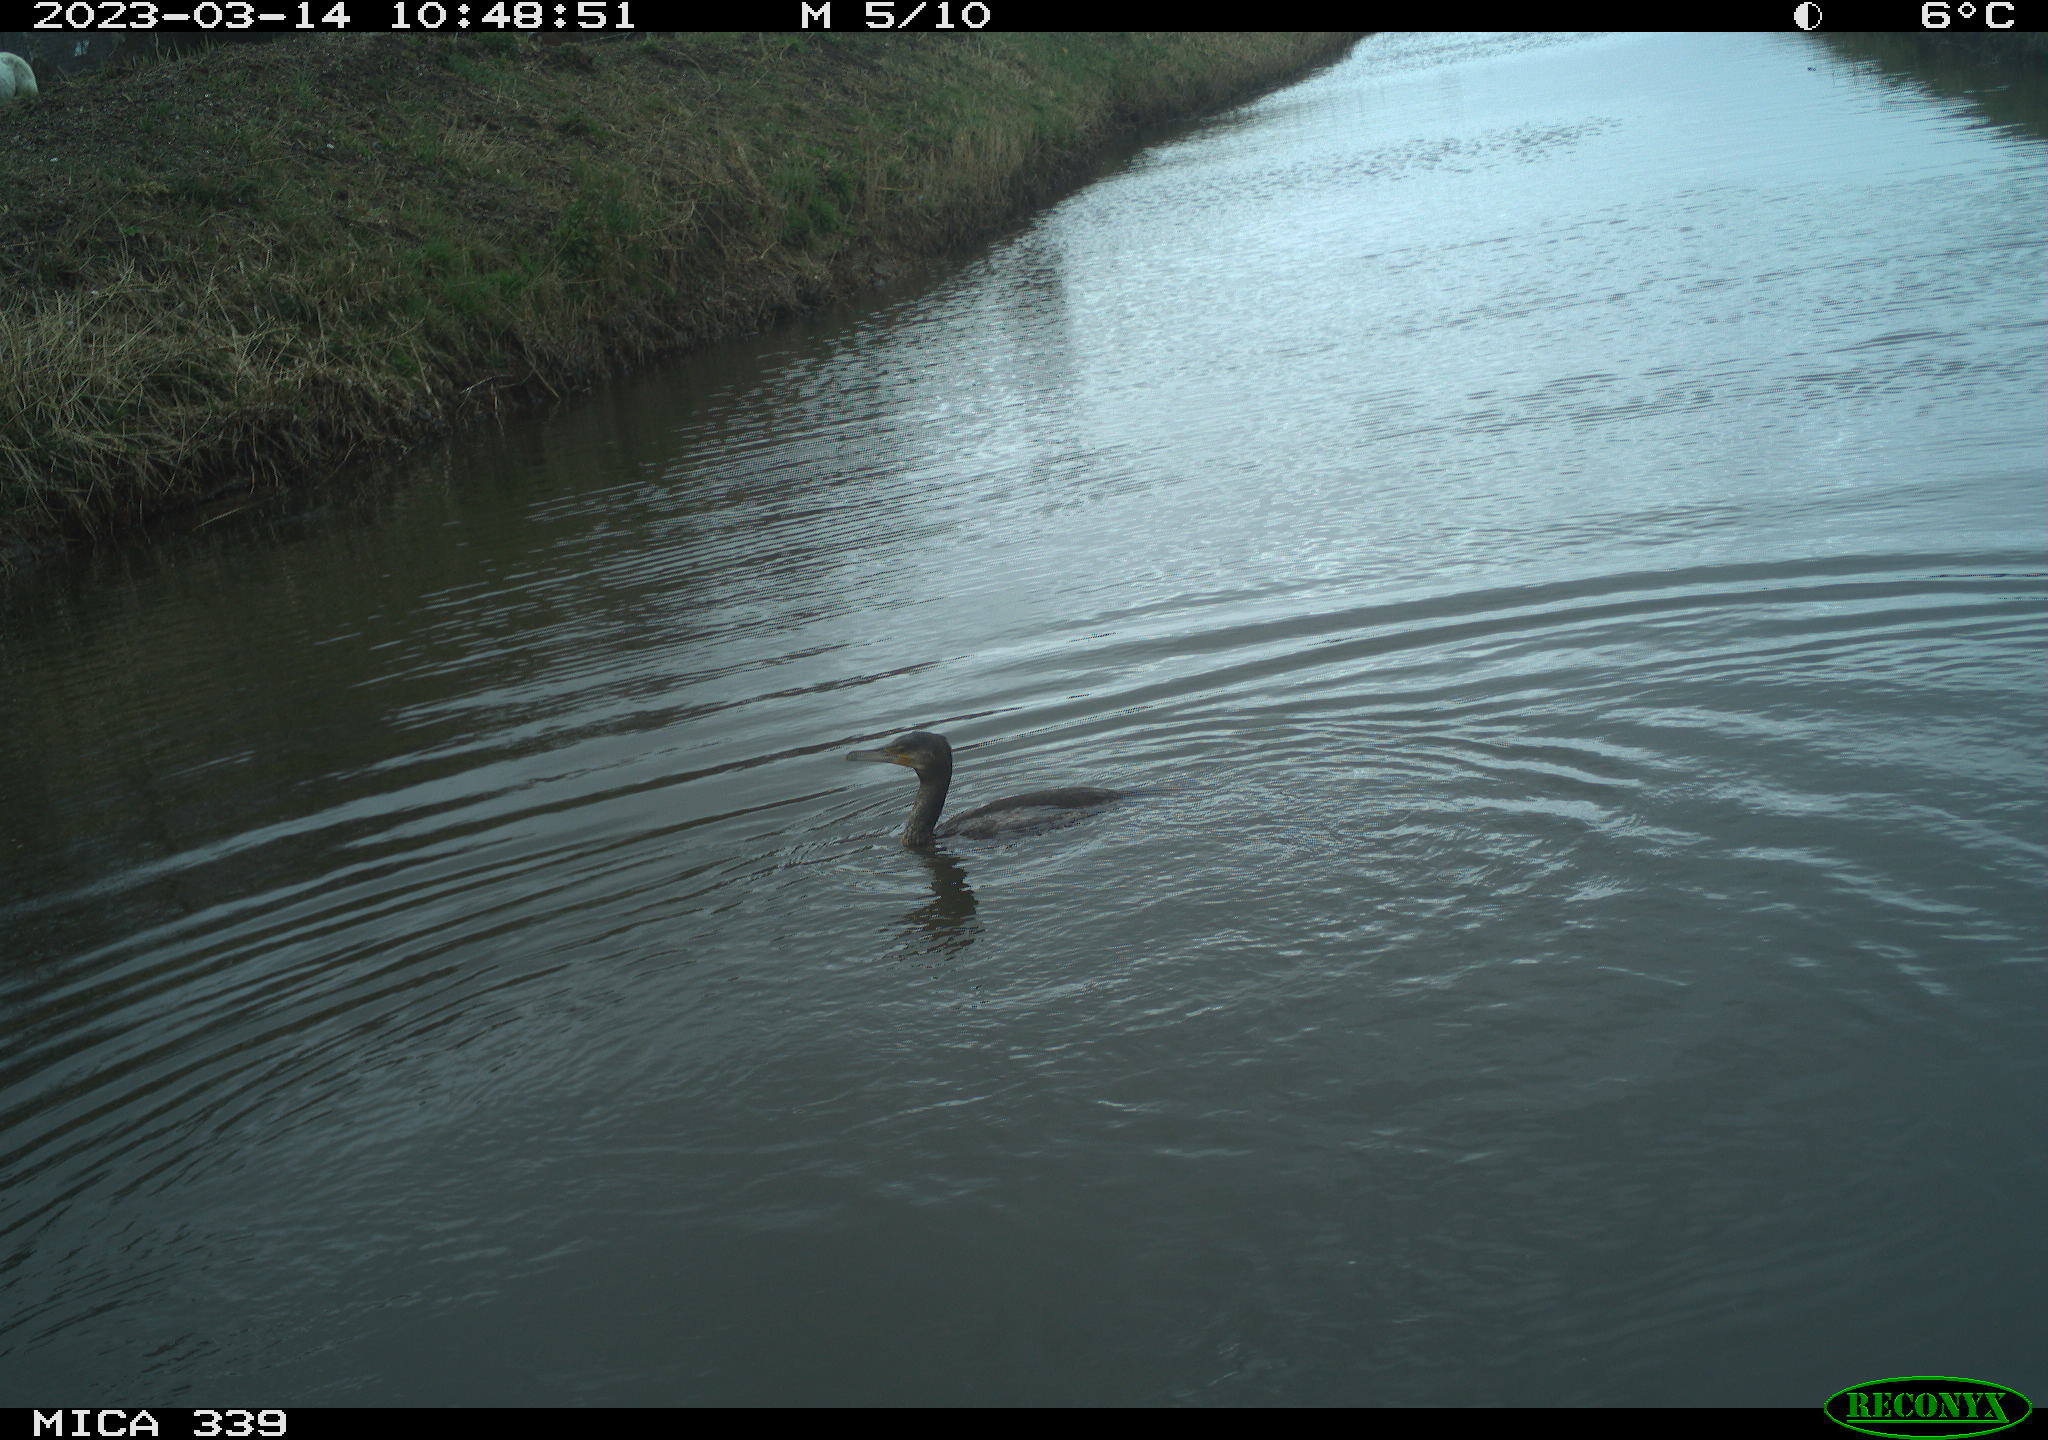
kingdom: Animalia
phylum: Chordata
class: Aves
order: Suliformes
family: Phalacrocoracidae
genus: Phalacrocorax
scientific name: Phalacrocorax carbo
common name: Great cormorant
